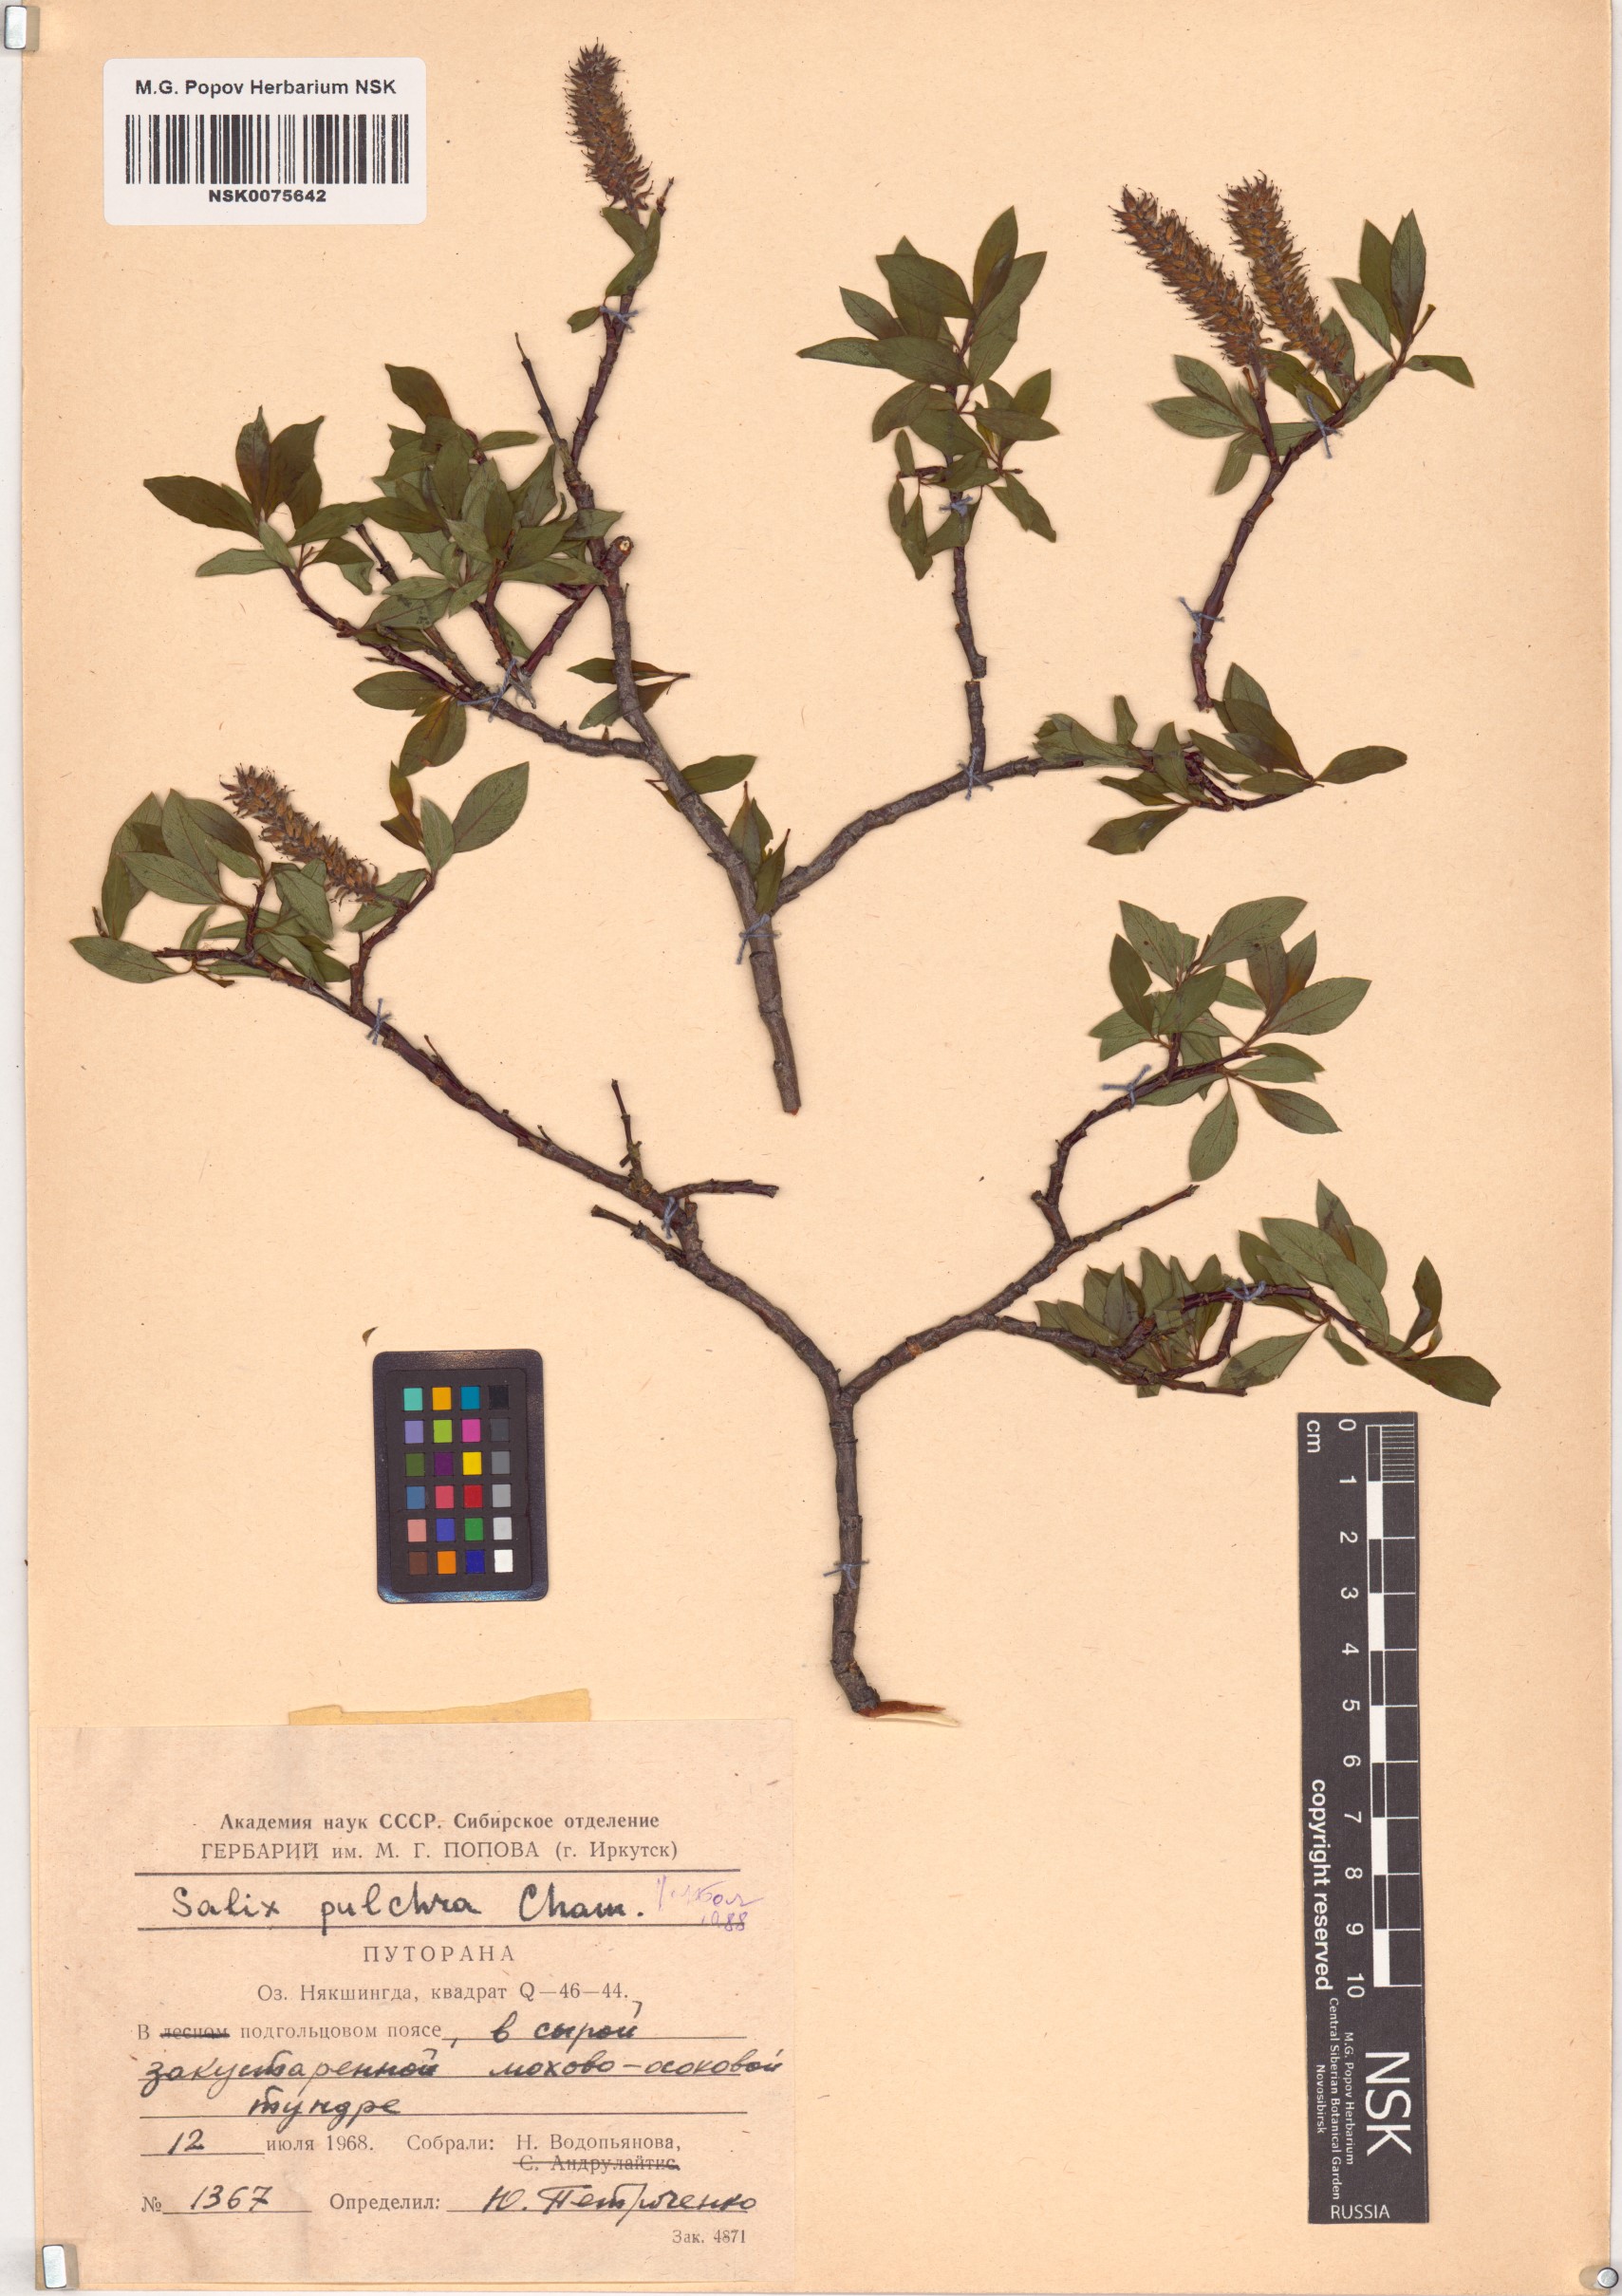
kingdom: Plantae
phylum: Tracheophyta
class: Magnoliopsida
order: Malpighiales
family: Salicaceae
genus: Salix
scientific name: Salix pulchra
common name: Diamond-leaved willow
